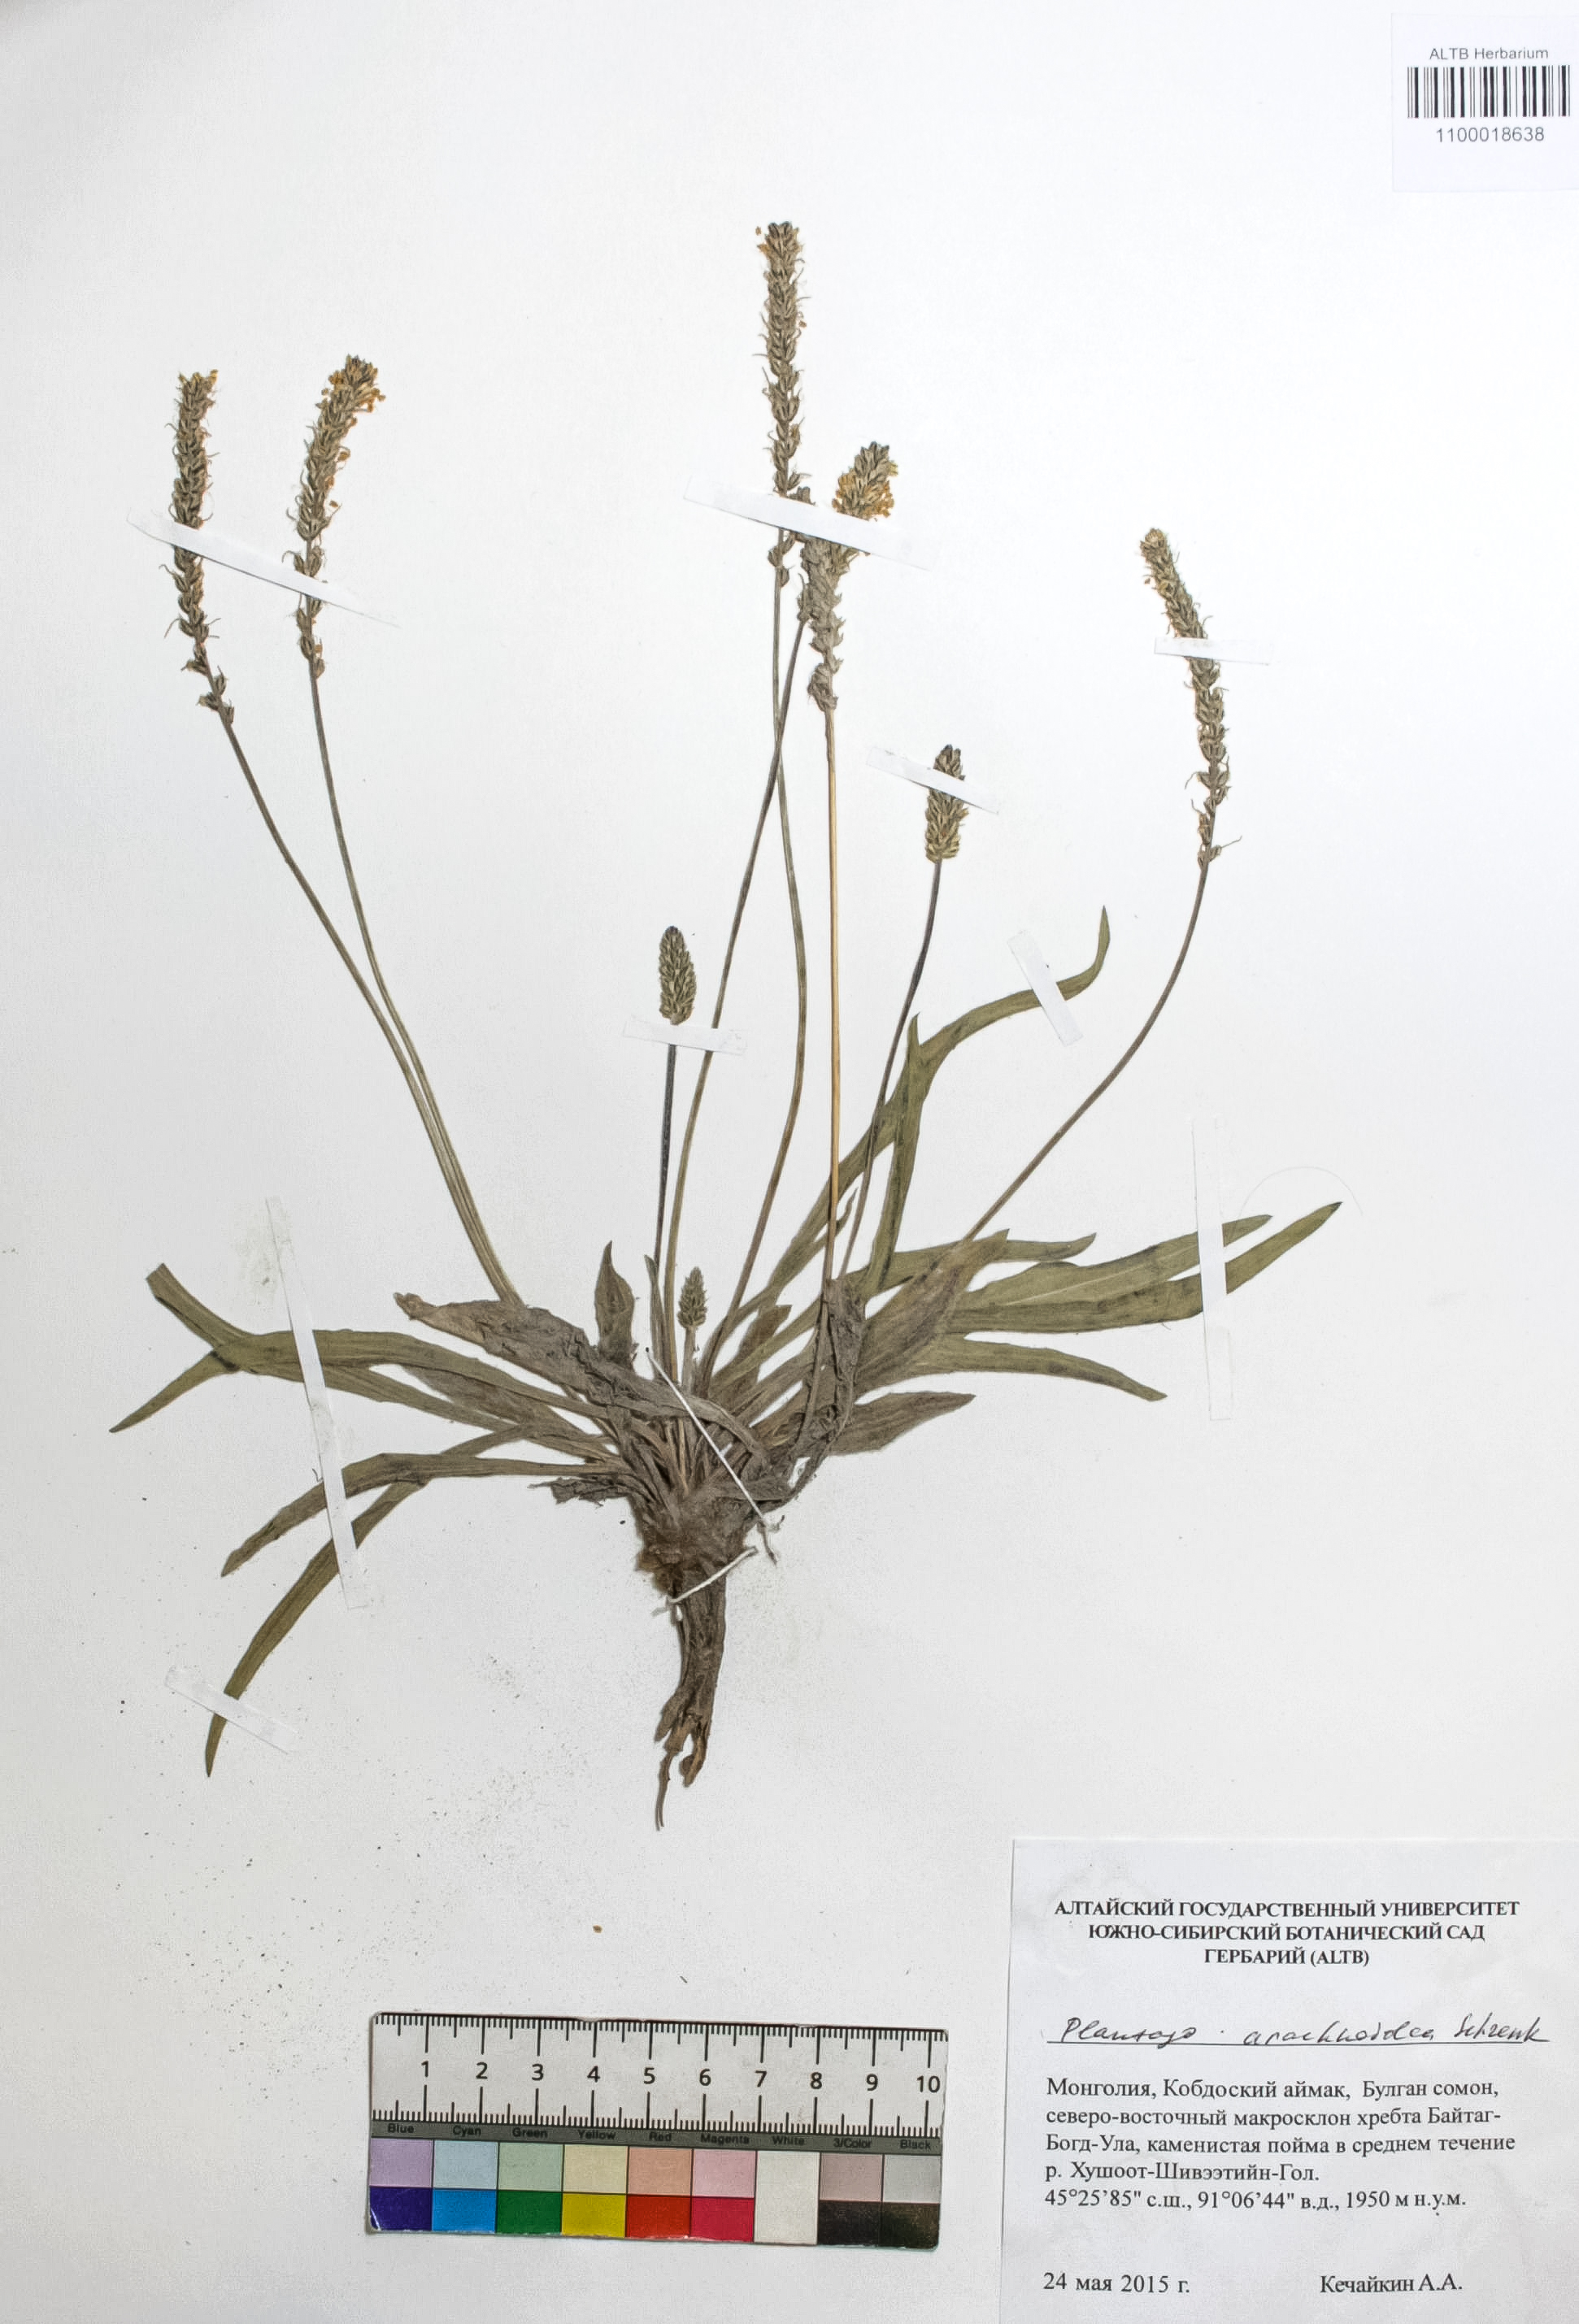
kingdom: Plantae
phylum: Tracheophyta
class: Magnoliopsida
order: Lamiales
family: Plantaginaceae
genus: Plantago
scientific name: Plantago arachnoidea
